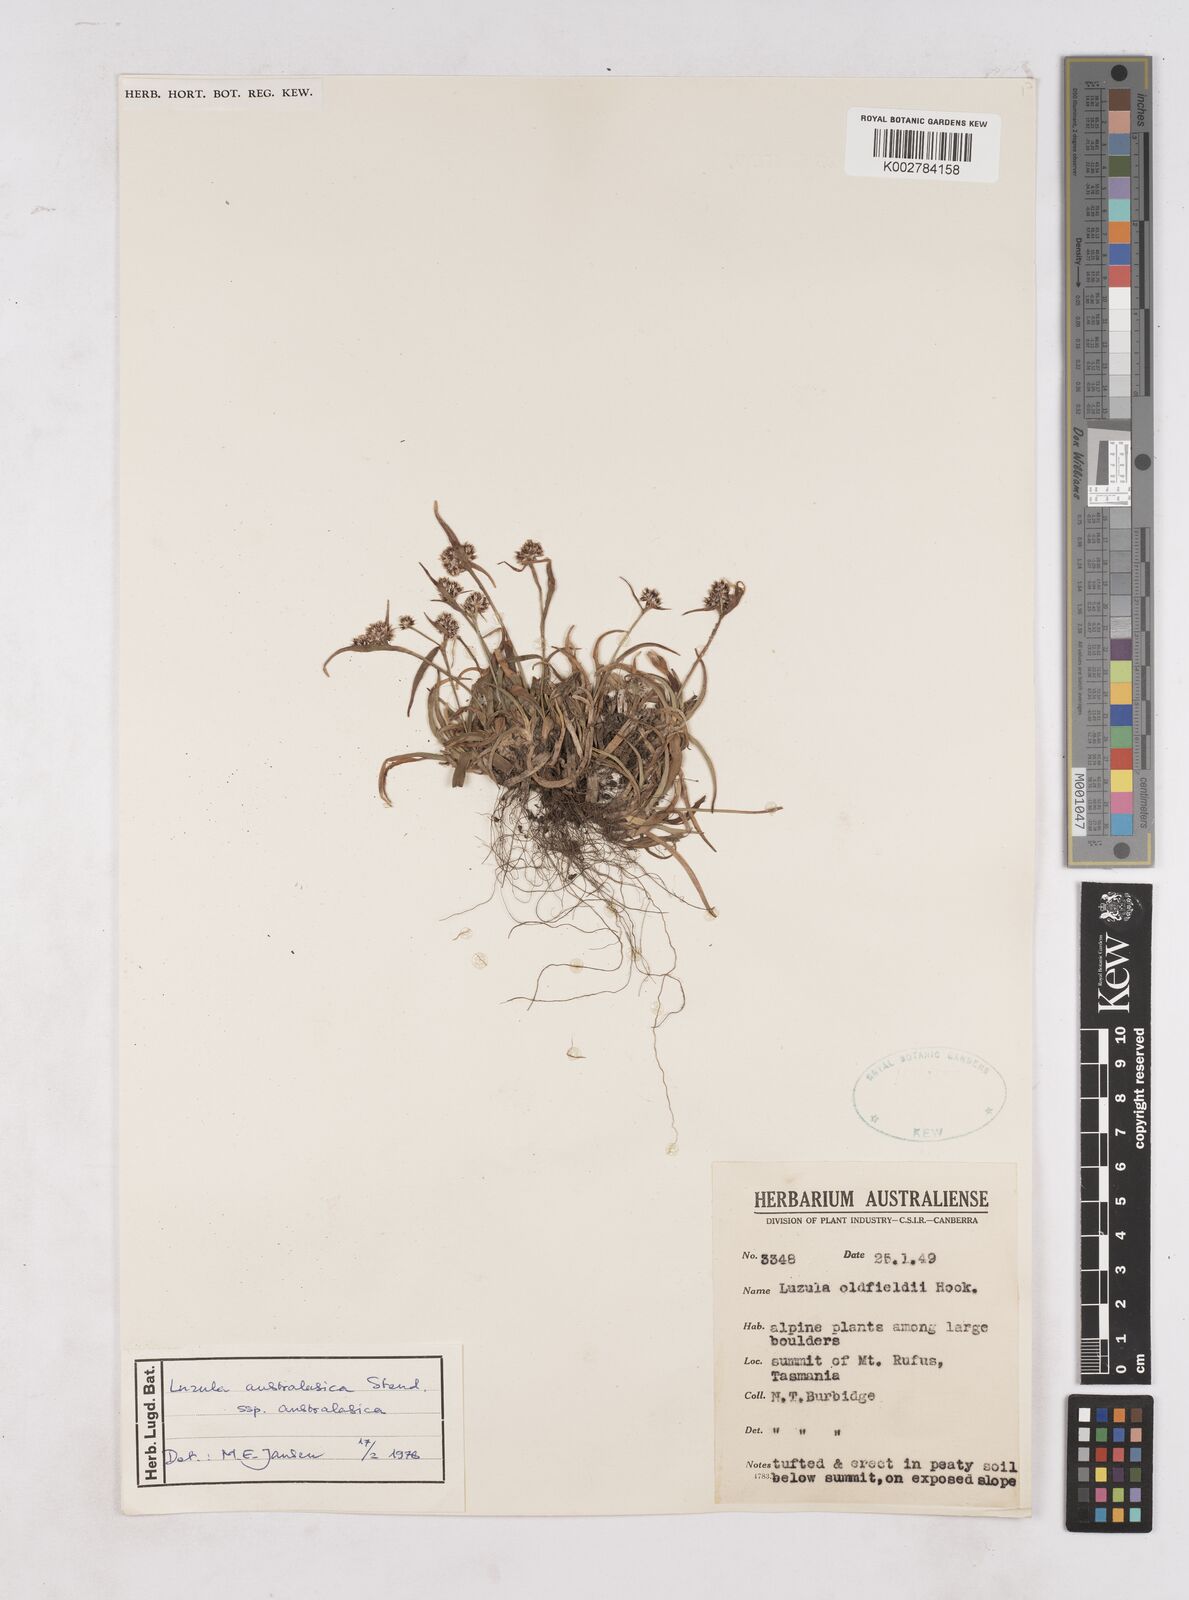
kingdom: Plantae
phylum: Tracheophyta
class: Liliopsida
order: Poales
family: Juncaceae
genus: Luzula
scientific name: Luzula australasica
